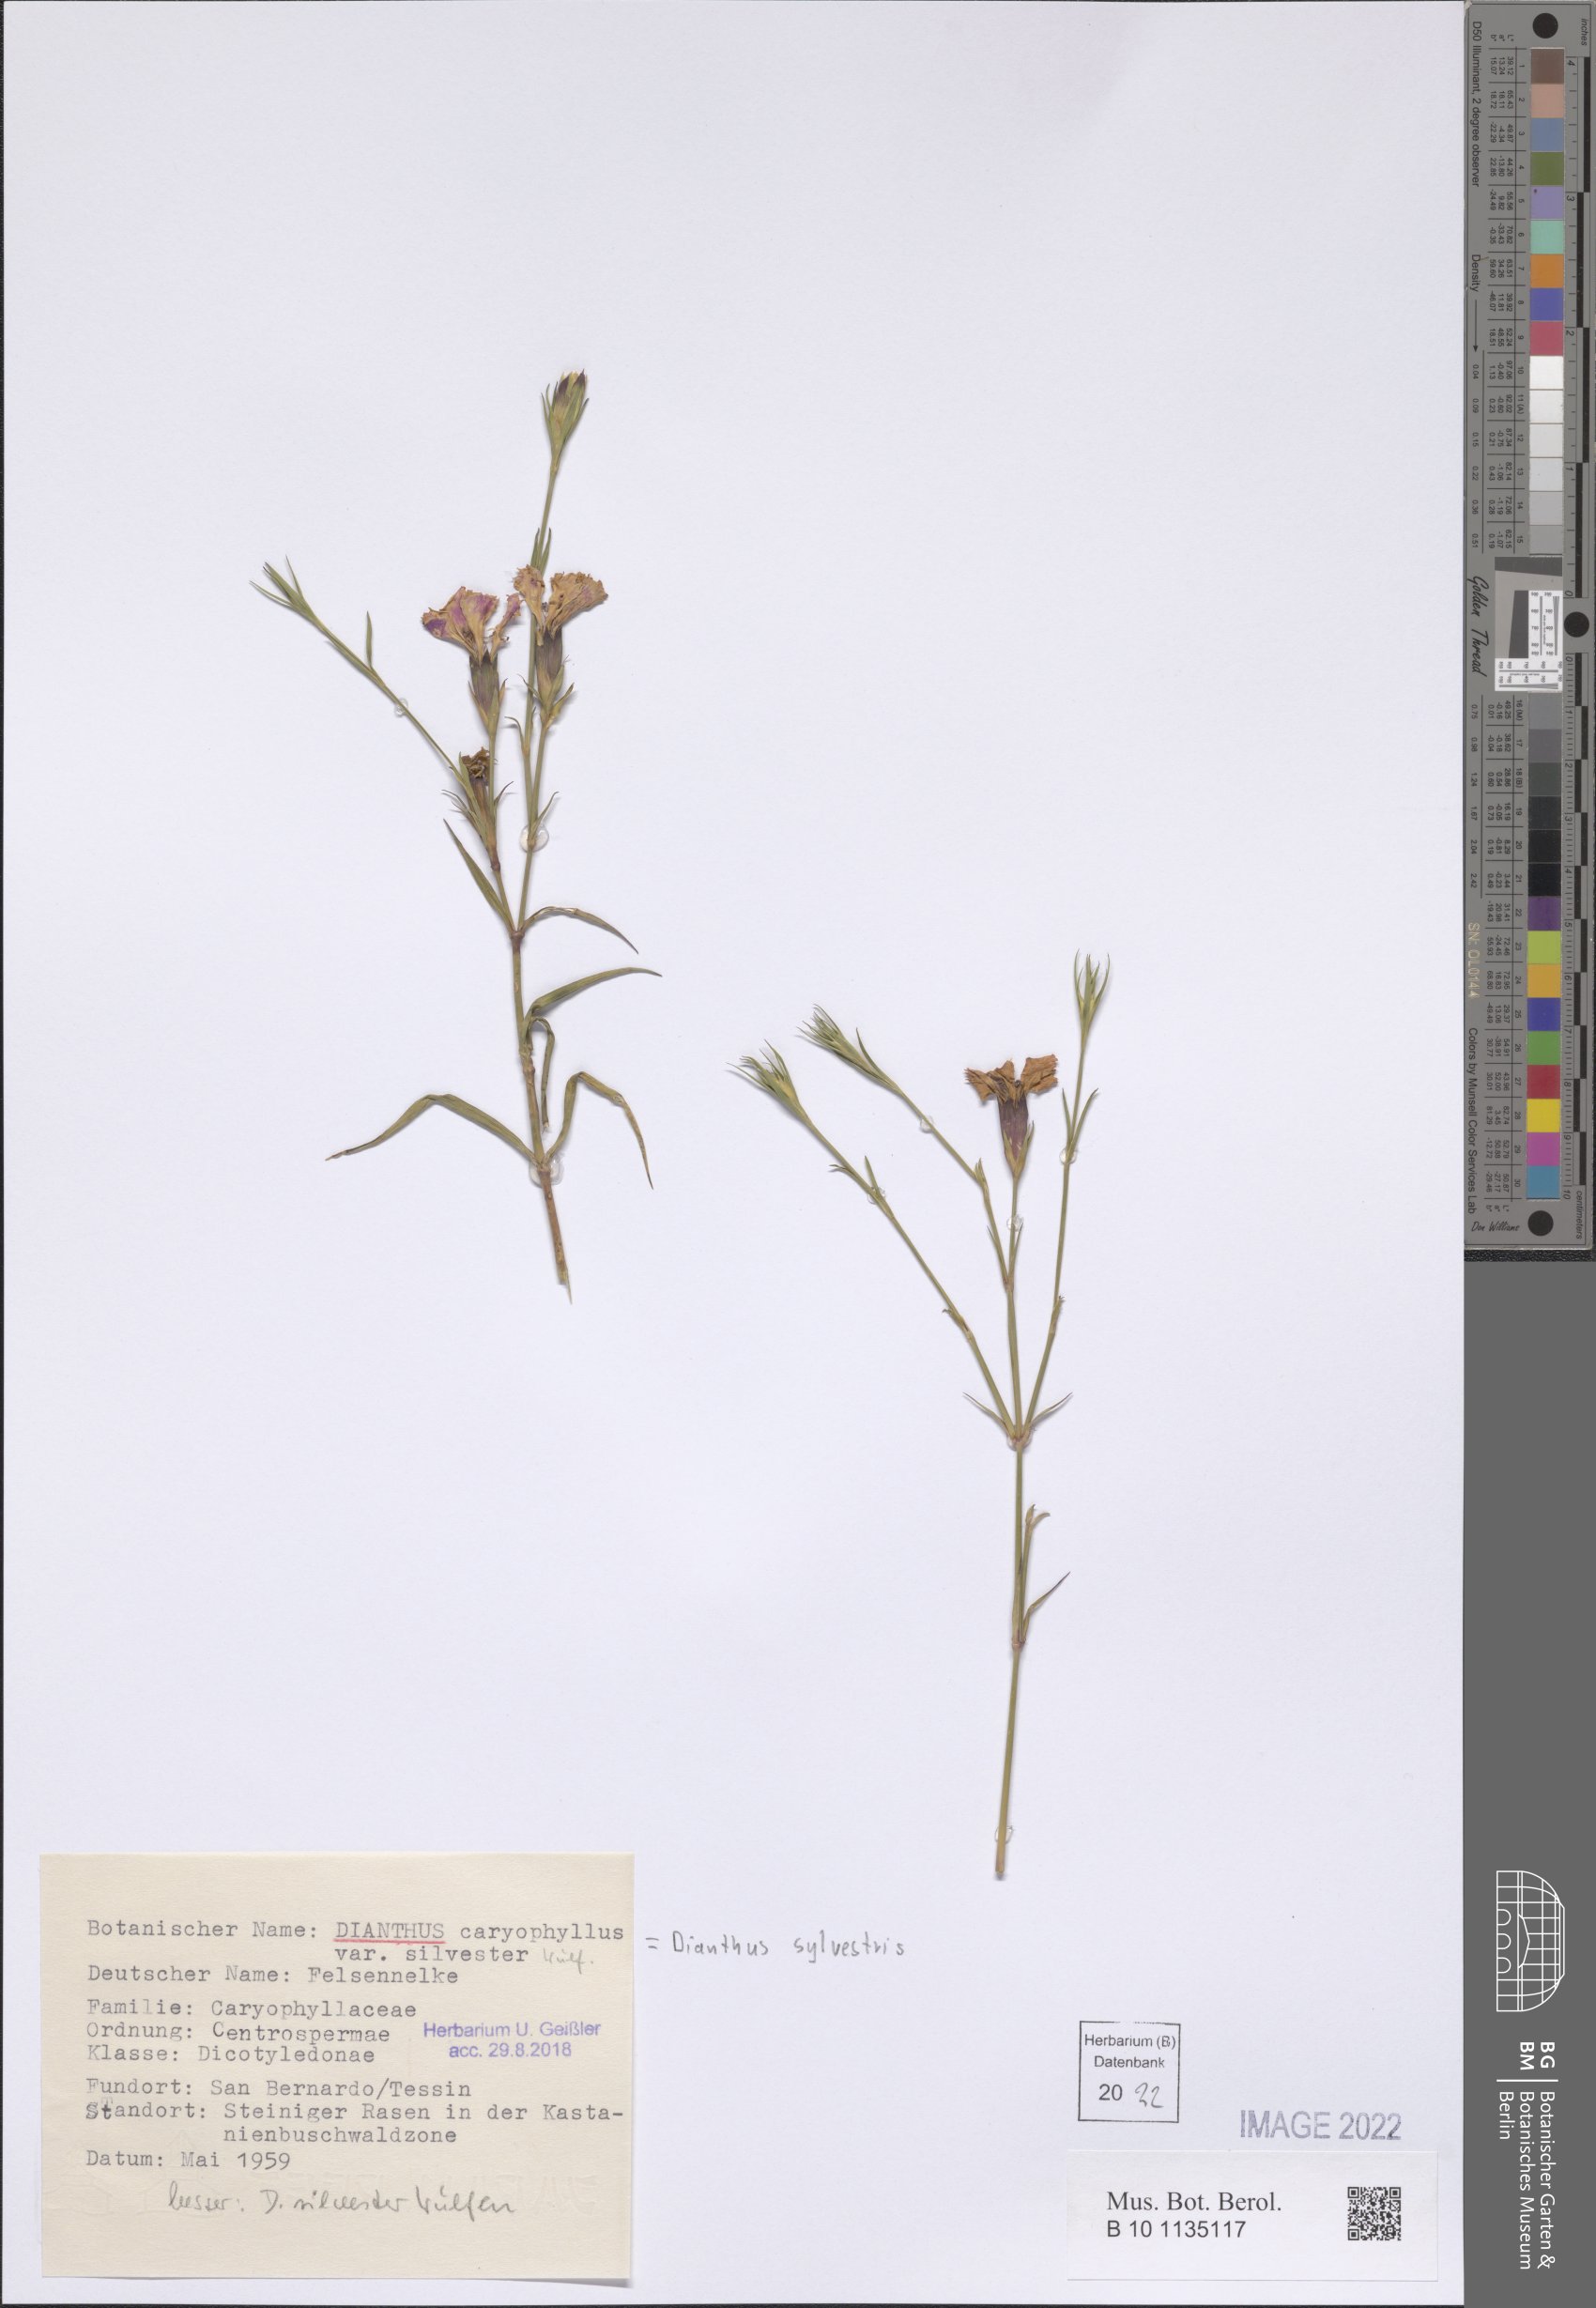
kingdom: Plantae
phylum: Tracheophyta
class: Magnoliopsida
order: Caryophyllales
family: Caryophyllaceae
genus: Dianthus
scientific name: Dianthus sylvestris
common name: Wood pink
